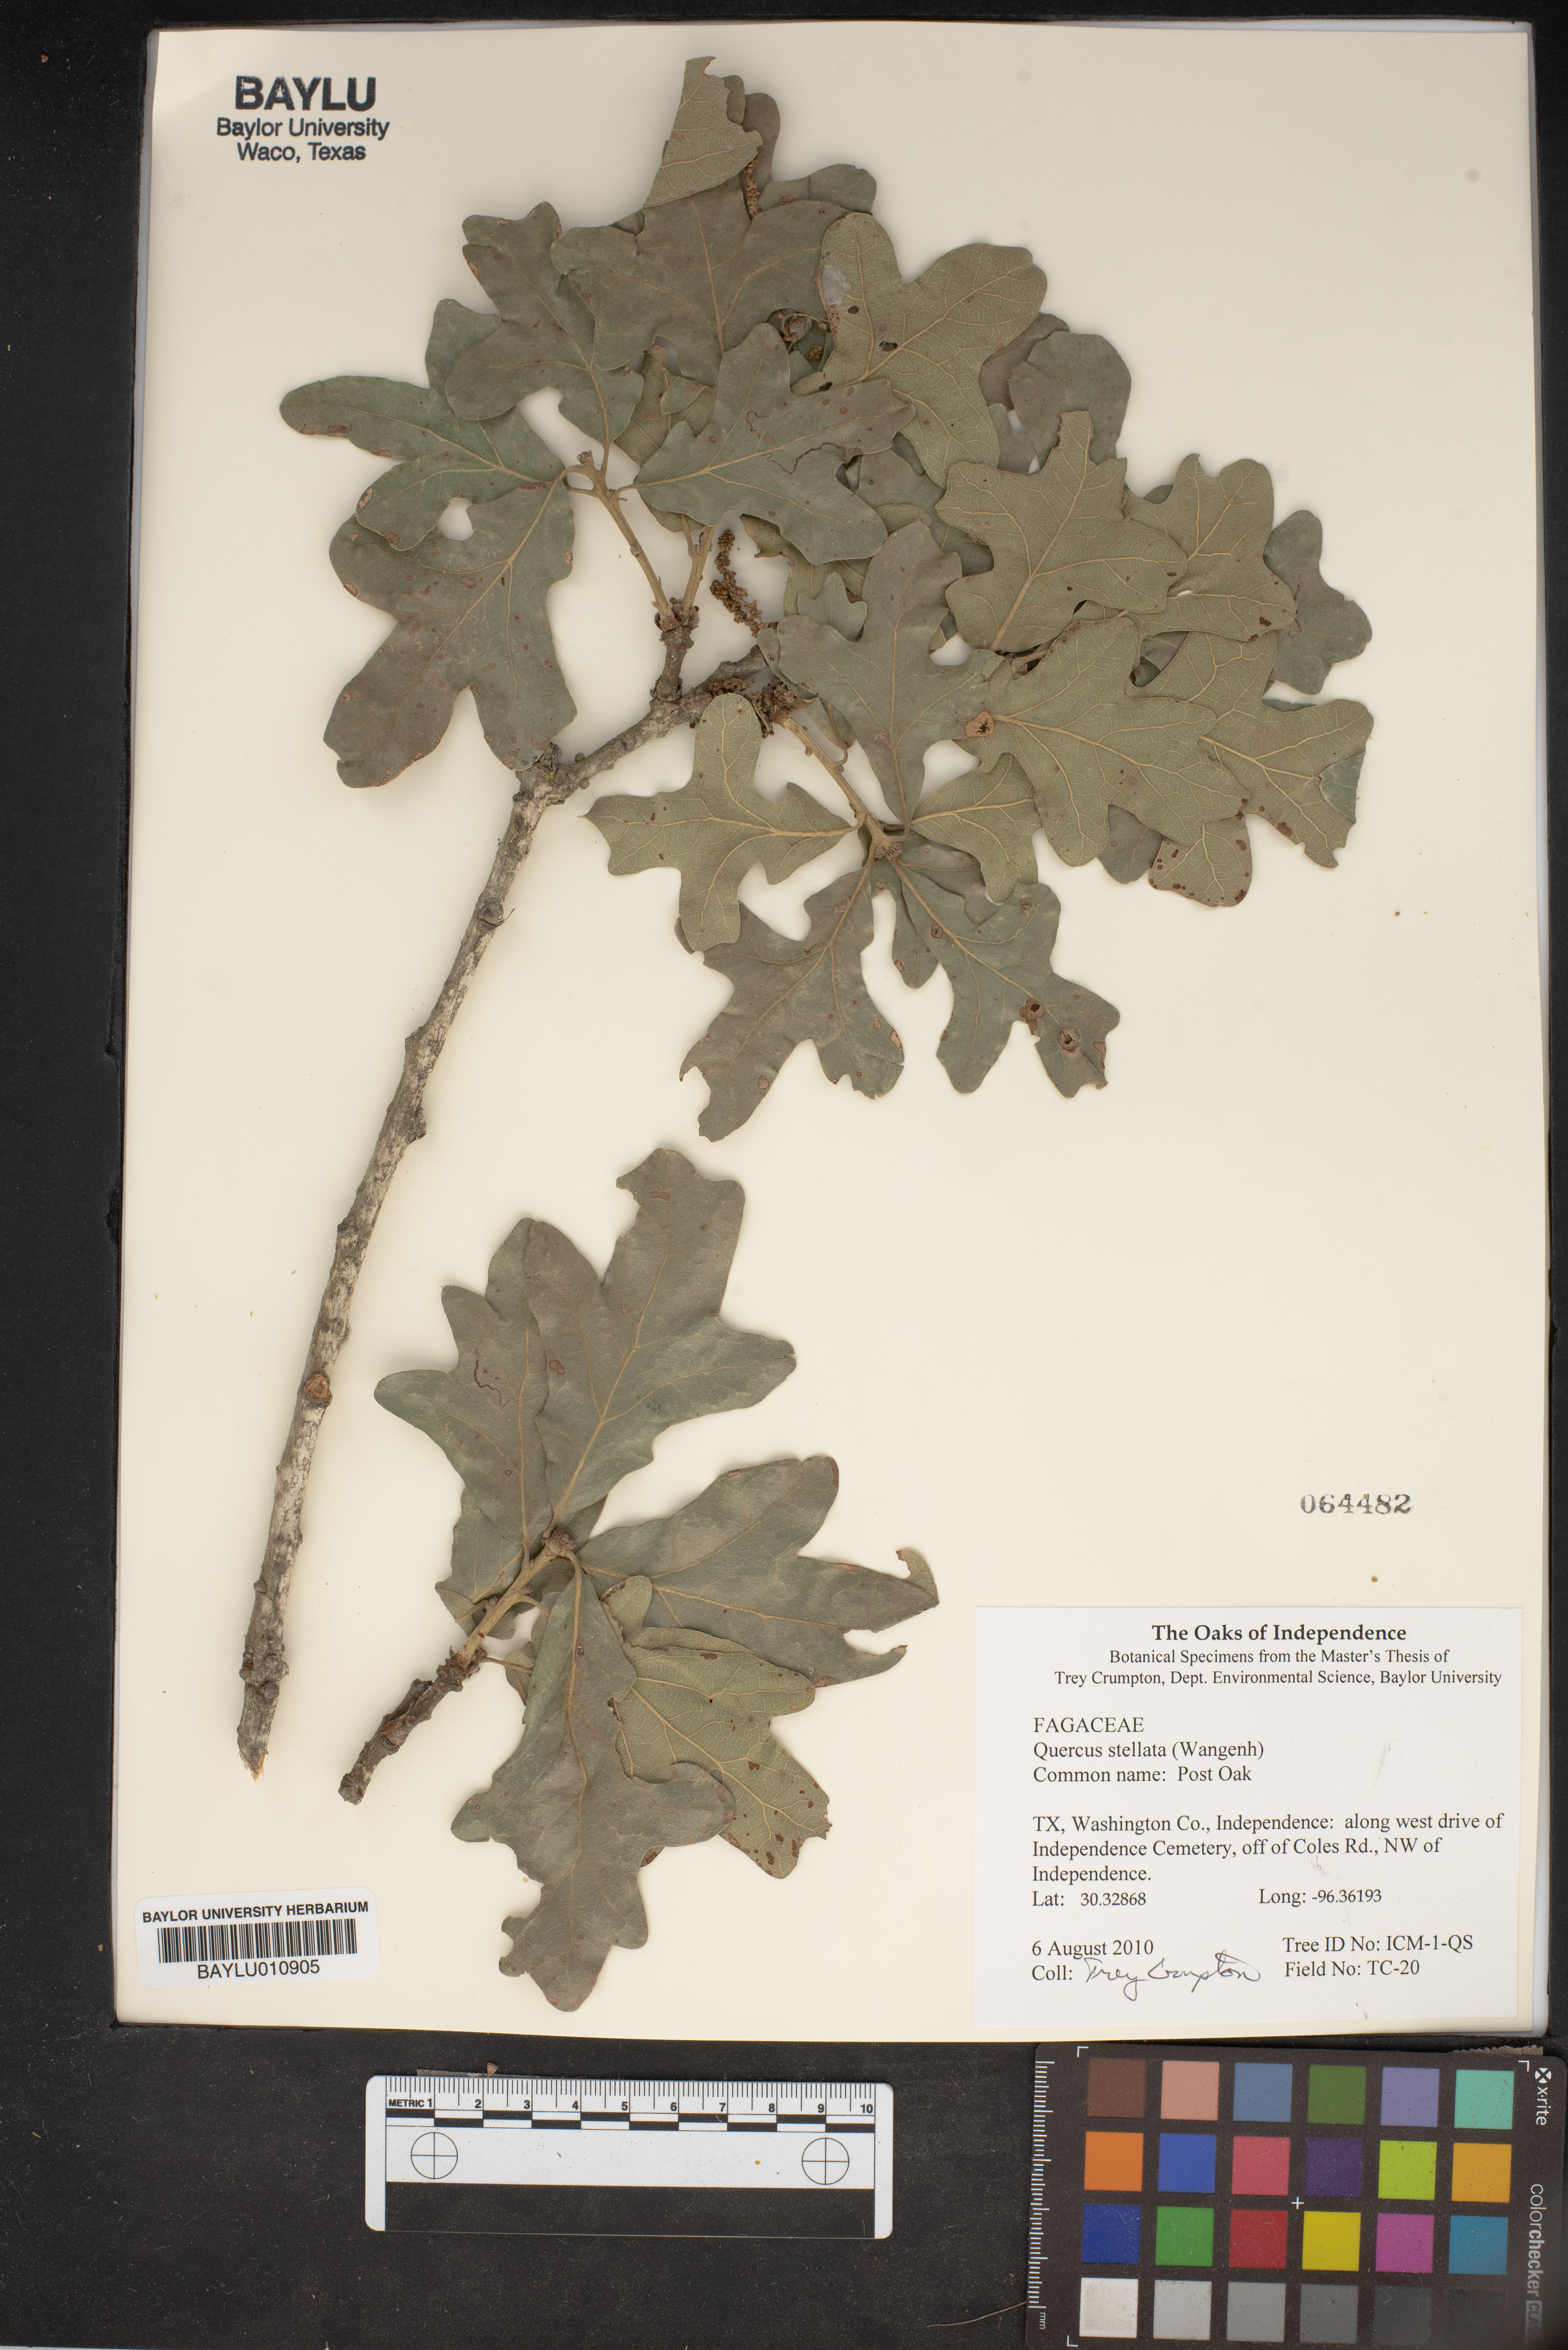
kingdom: Plantae
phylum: Tracheophyta
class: Magnoliopsida
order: Fagales
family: Fagaceae
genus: Quercus
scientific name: Quercus stellata
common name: Post oak
